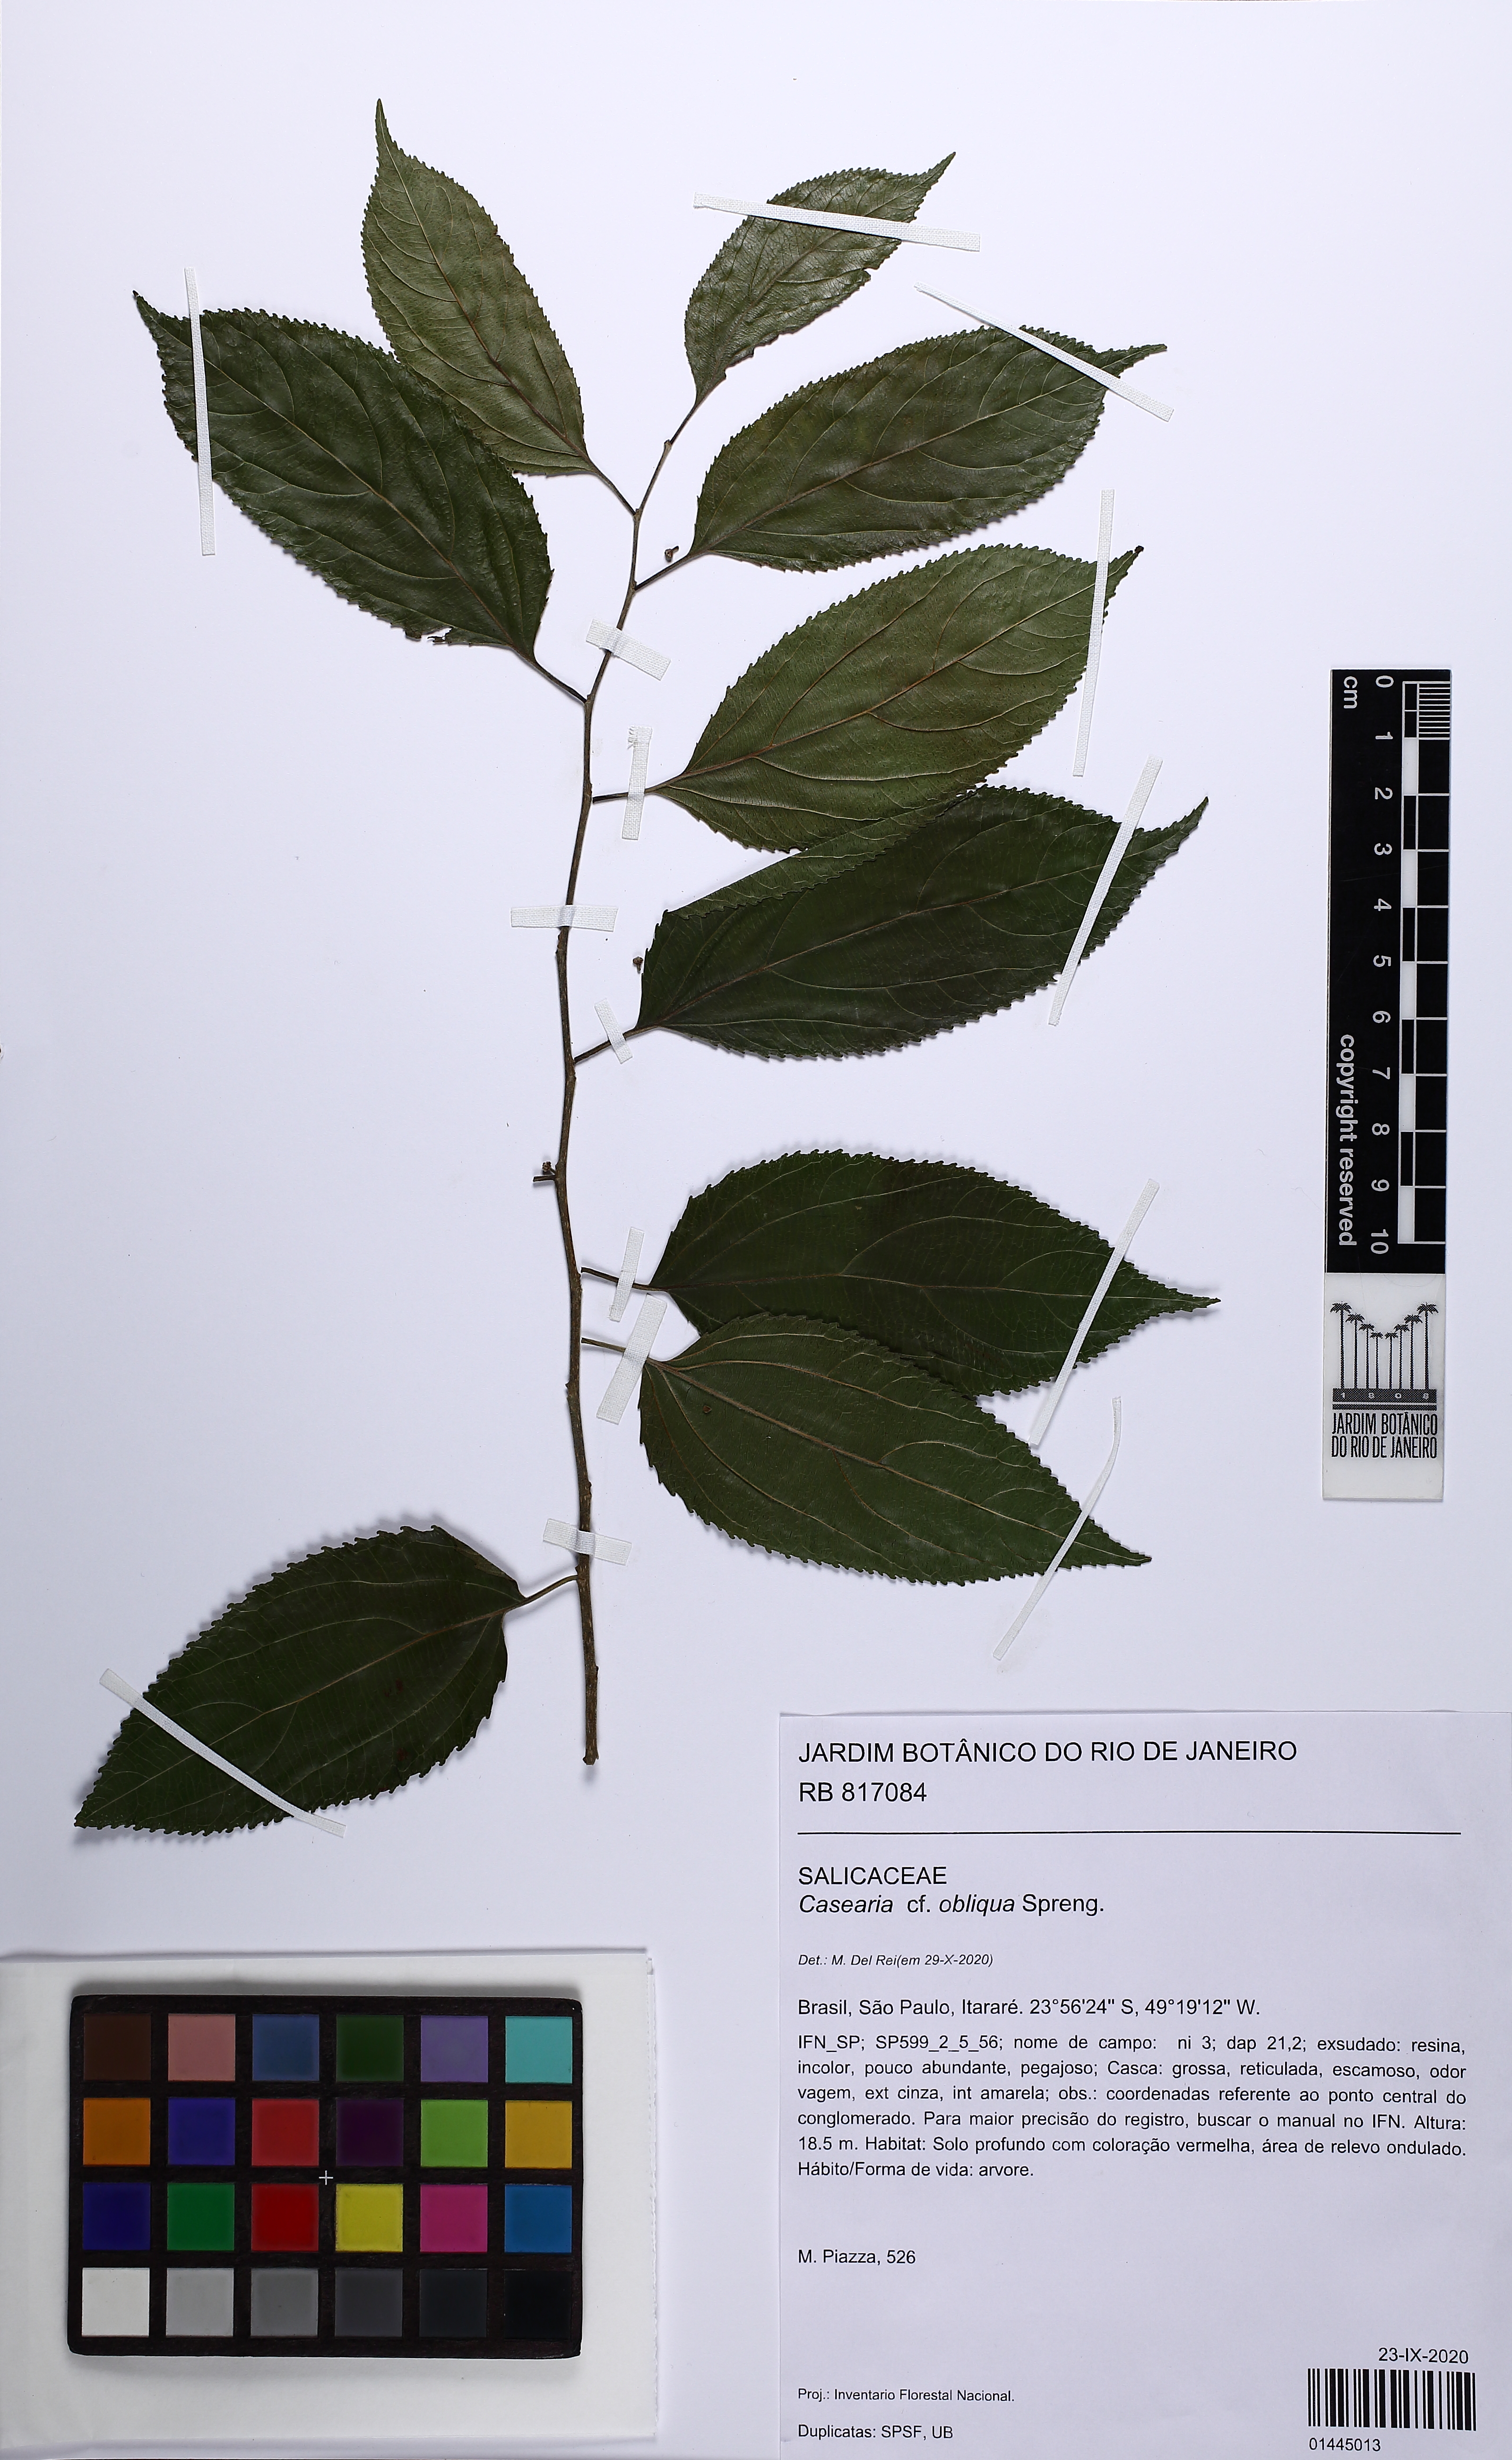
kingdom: Plantae
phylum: Tracheophyta
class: Magnoliopsida
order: Malpighiales
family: Salicaceae
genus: Casearia
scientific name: Casearia obliqua
